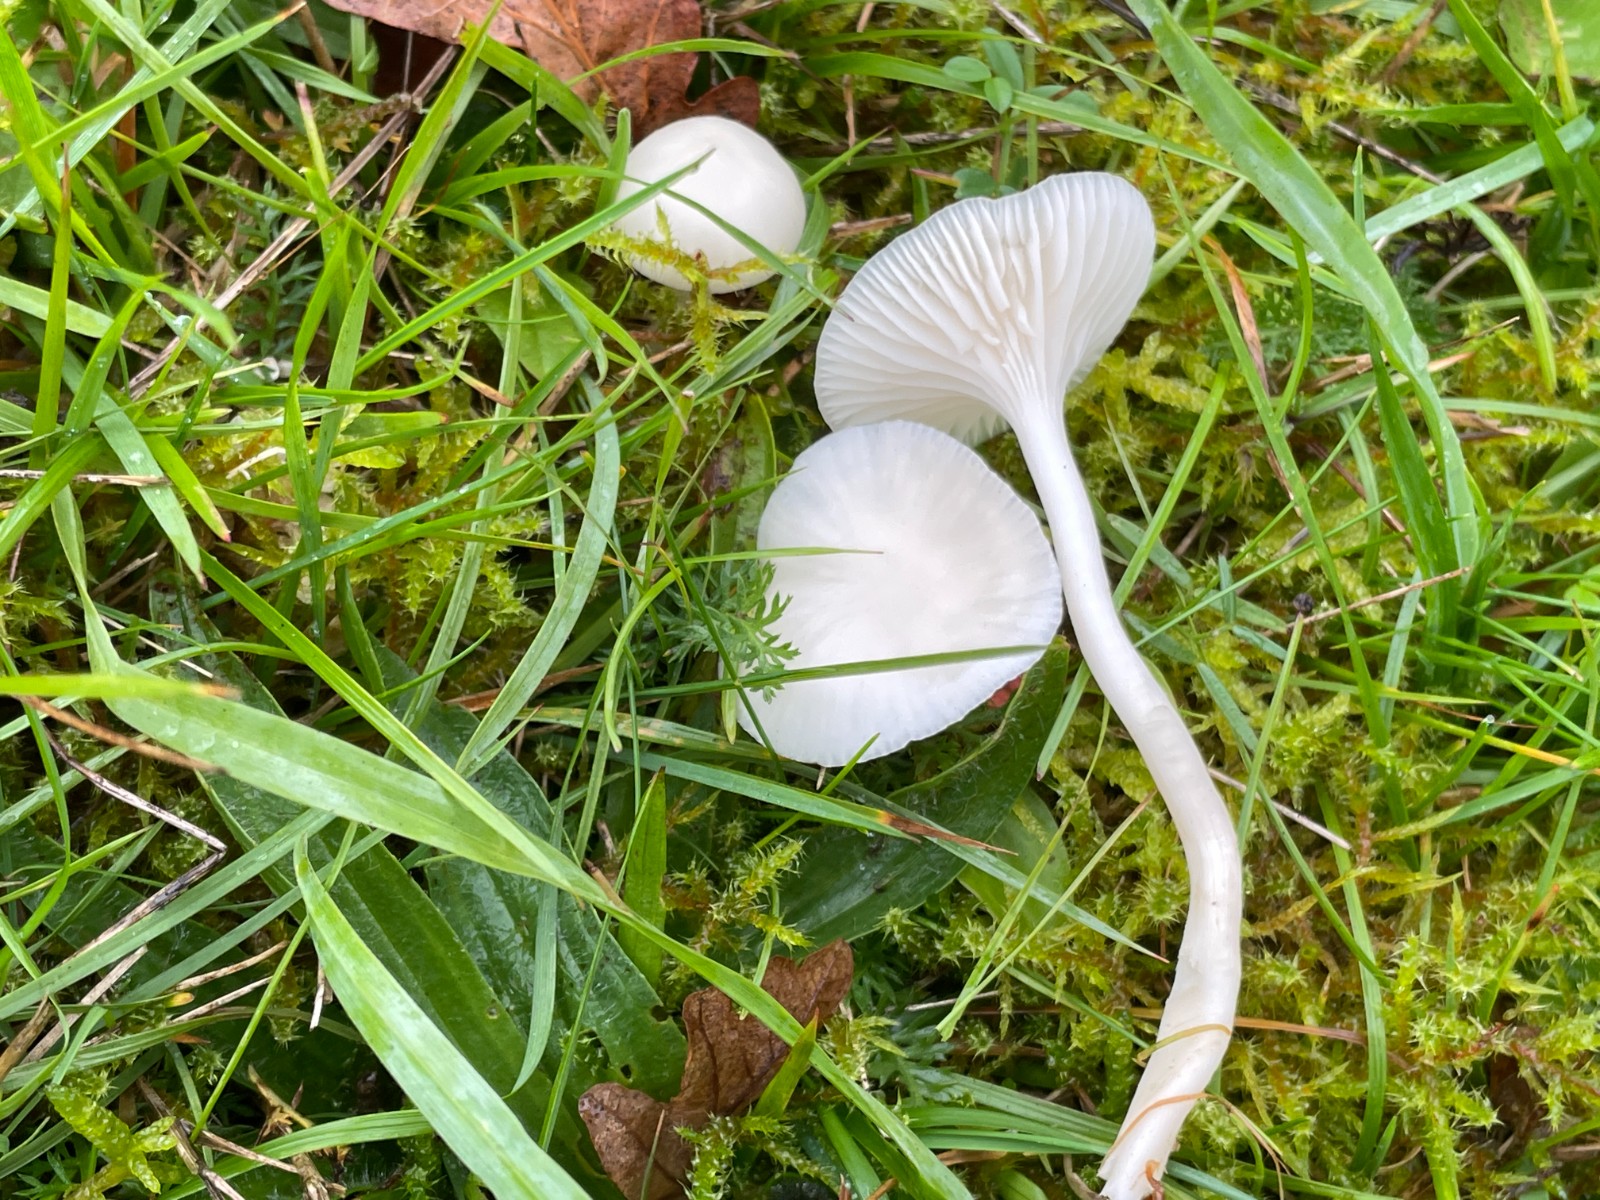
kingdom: Fungi
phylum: Basidiomycota
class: Agaricomycetes
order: Agaricales
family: Hygrophoraceae
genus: Cuphophyllus
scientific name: Cuphophyllus virgineus
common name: snehvid vokshat
